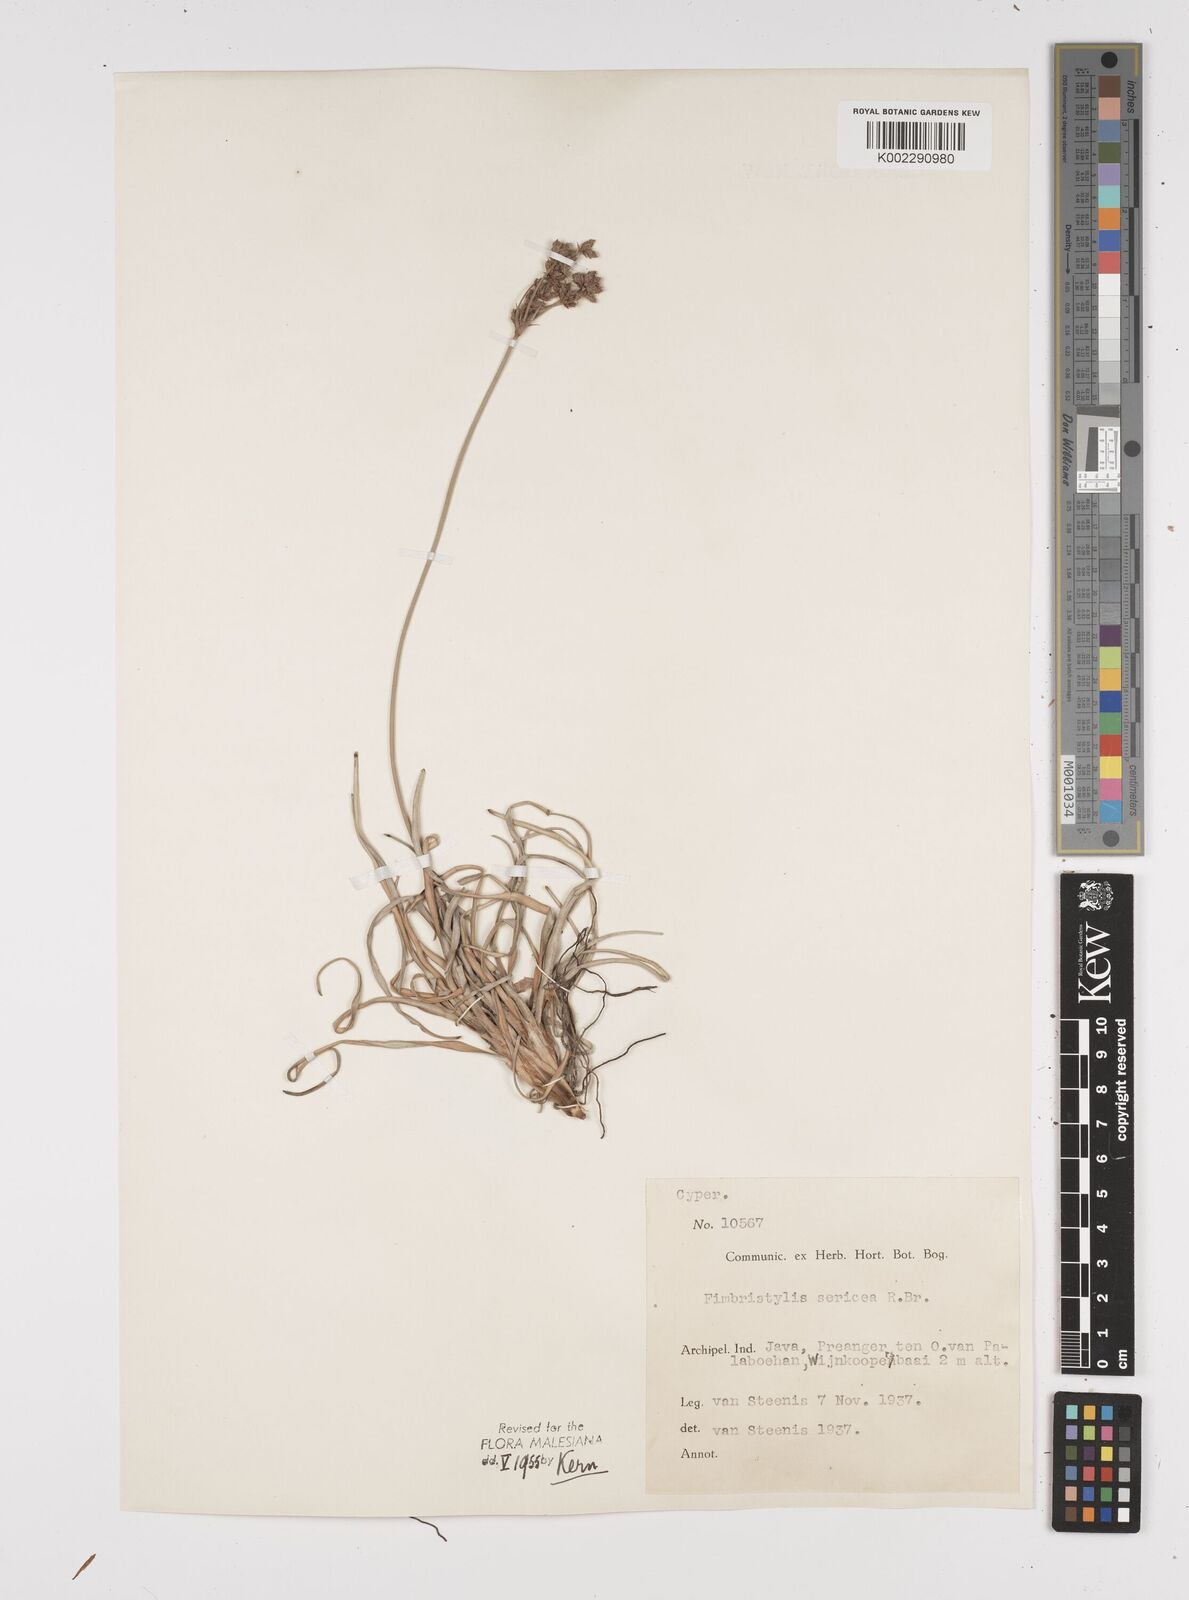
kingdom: Plantae
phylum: Tracheophyta
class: Liliopsida
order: Poales
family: Cyperaceae
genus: Fimbristylis
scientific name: Fimbristylis sericea
